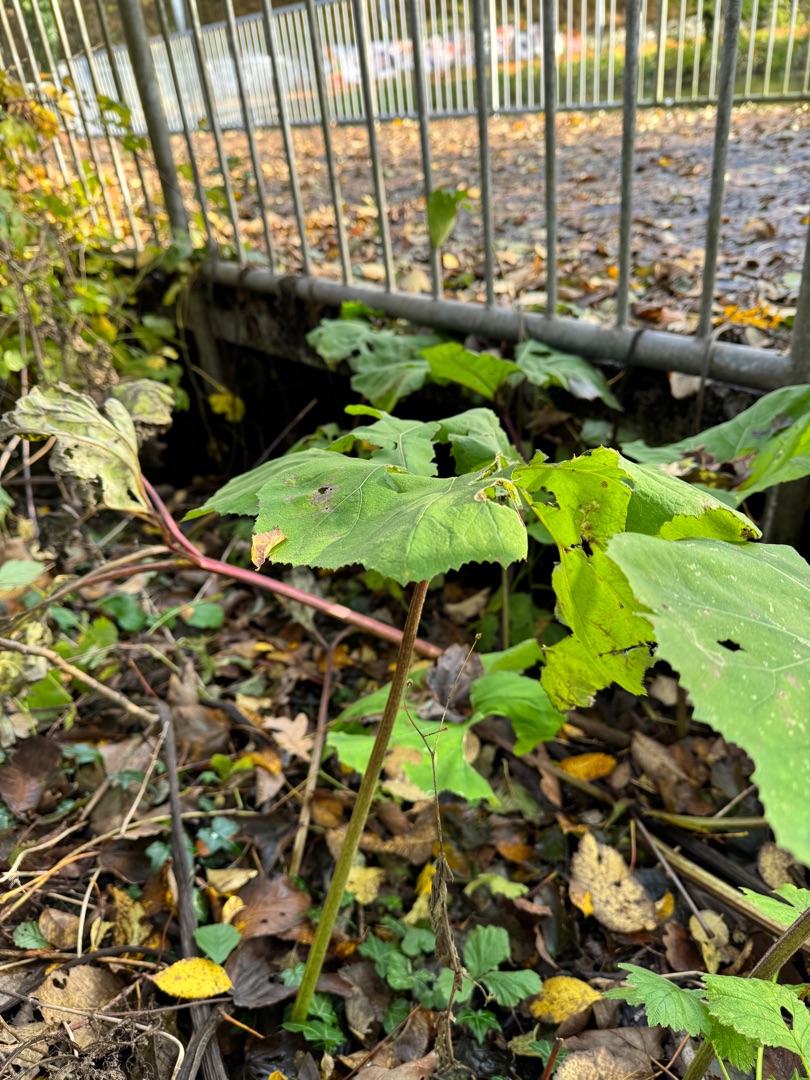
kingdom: Plantae
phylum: Tracheophyta
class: Magnoliopsida
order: Asterales
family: Asteraceae
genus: Petasites
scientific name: Petasites hybridus
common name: Rød hestehov
